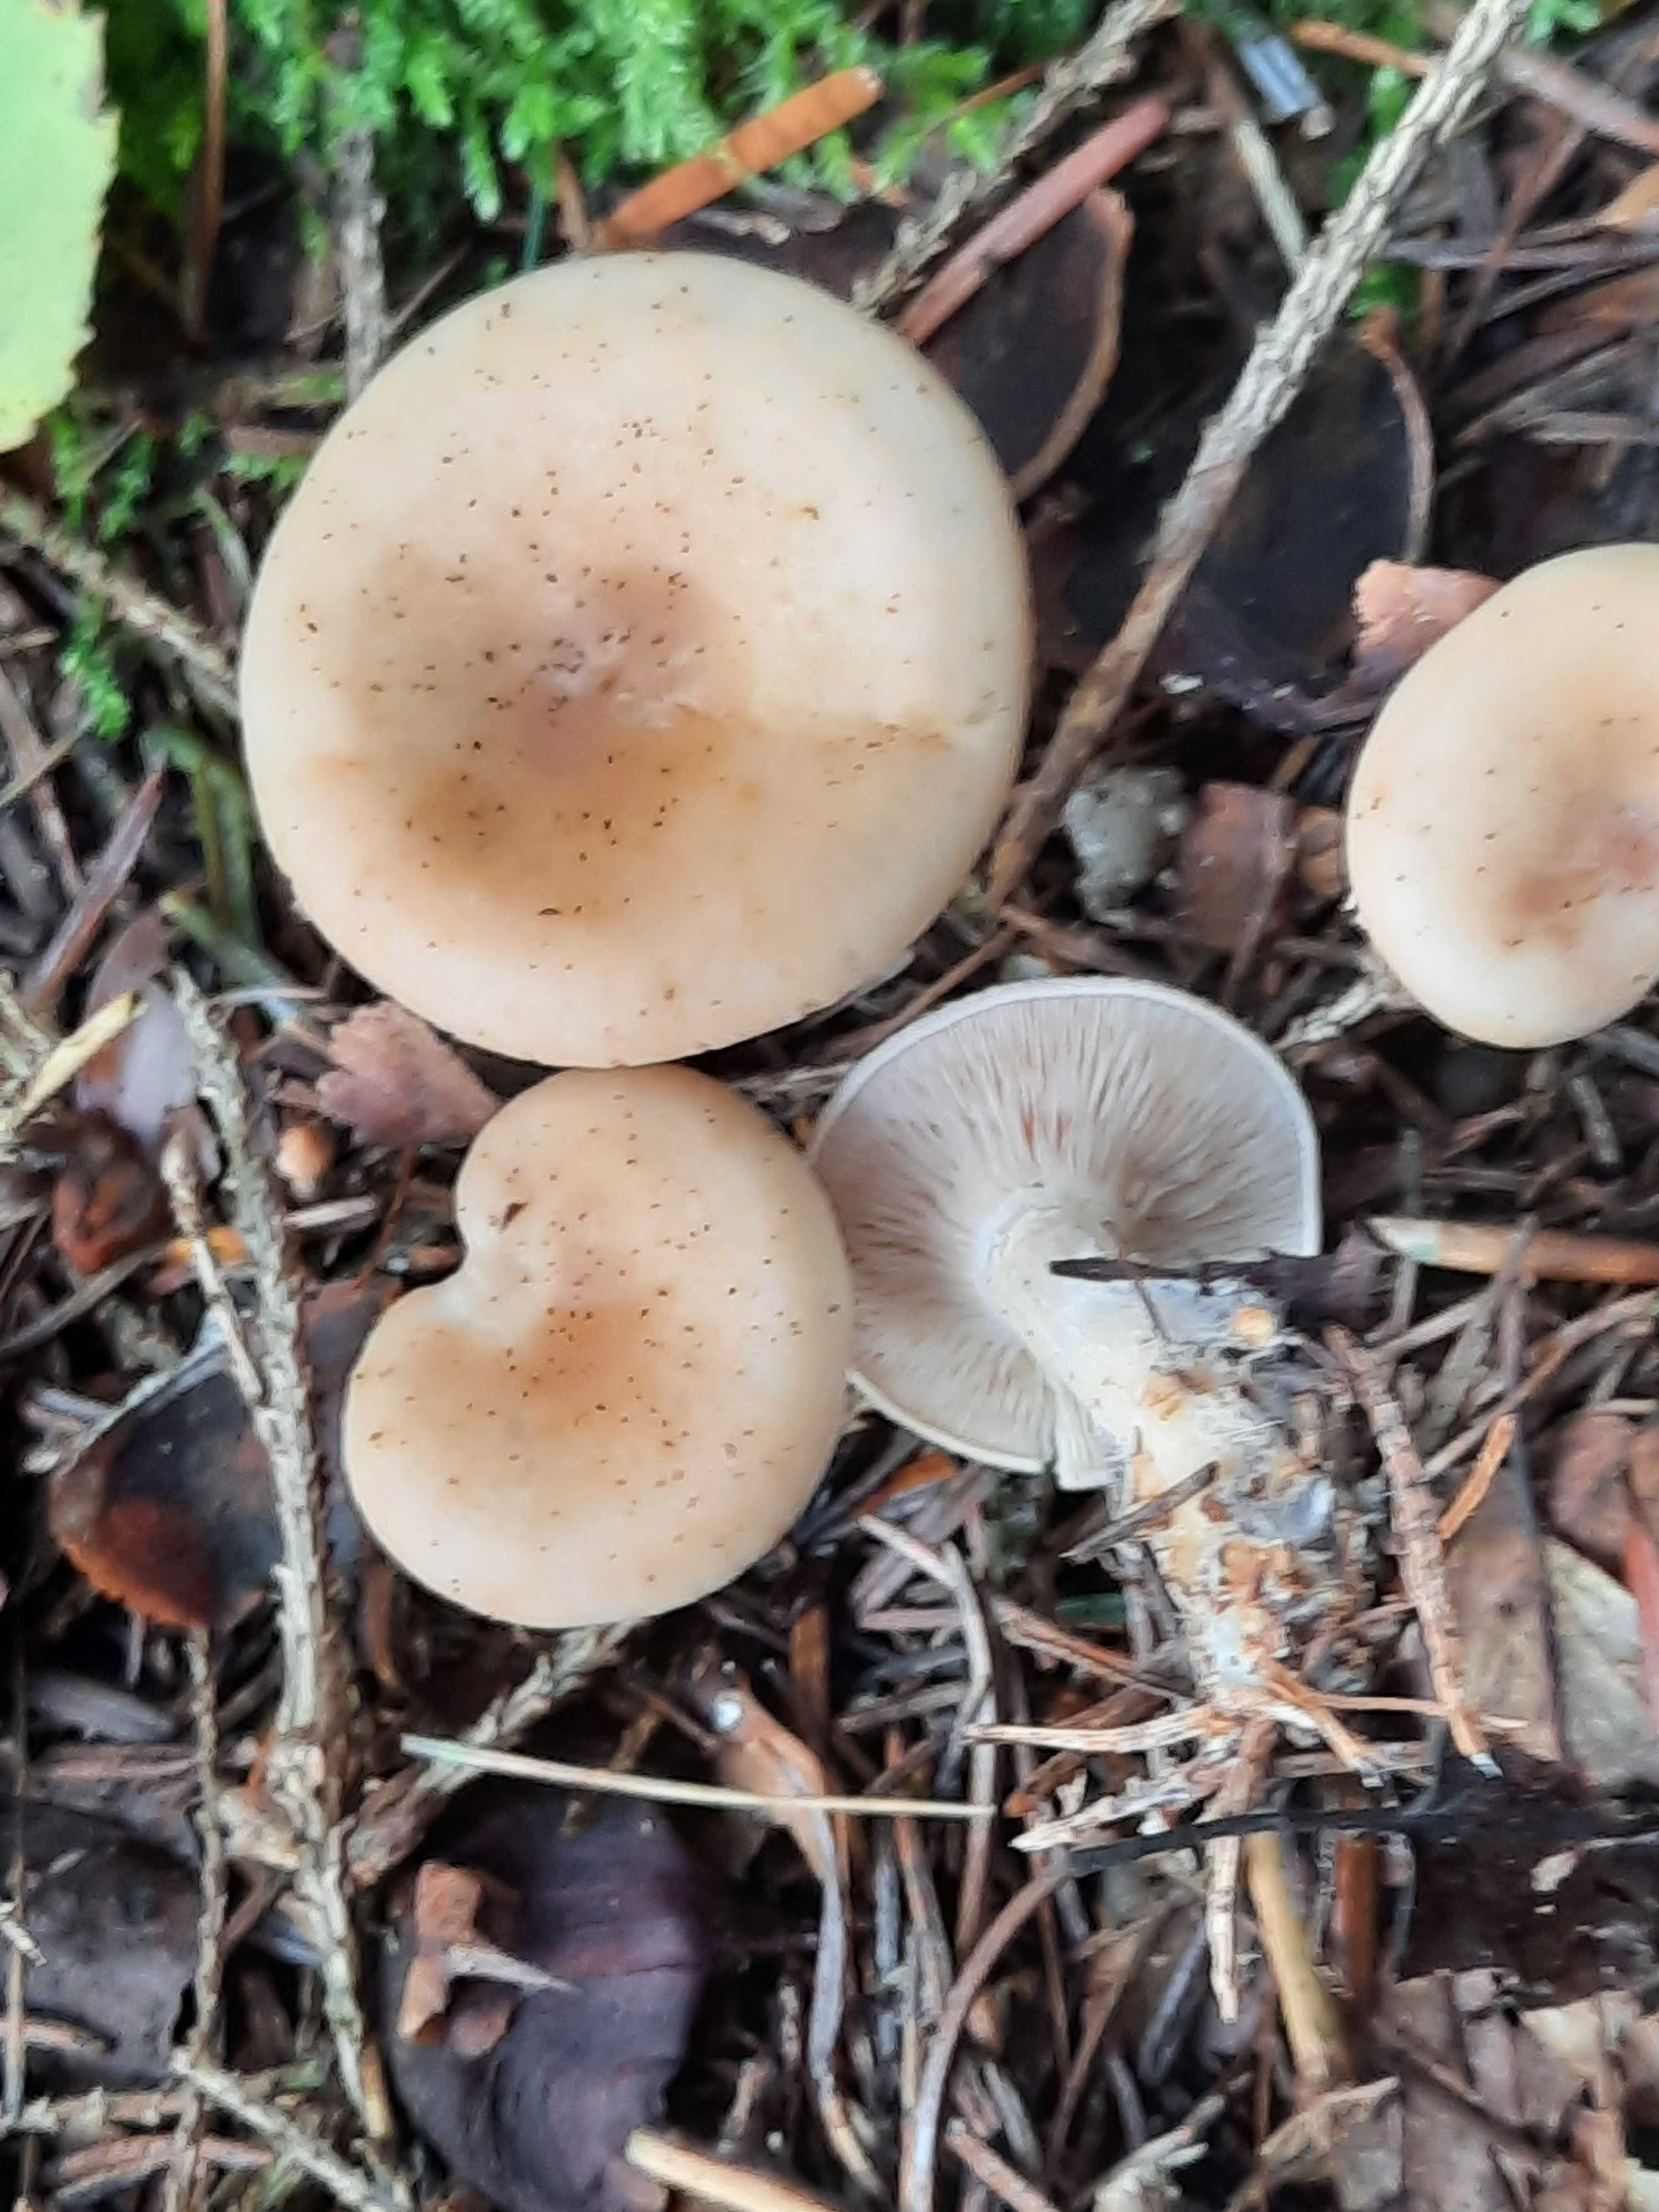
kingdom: Fungi
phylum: Basidiomycota
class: Agaricomycetes
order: Agaricales
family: Tricholomataceae
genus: Paralepista
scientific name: Paralepista flaccida
